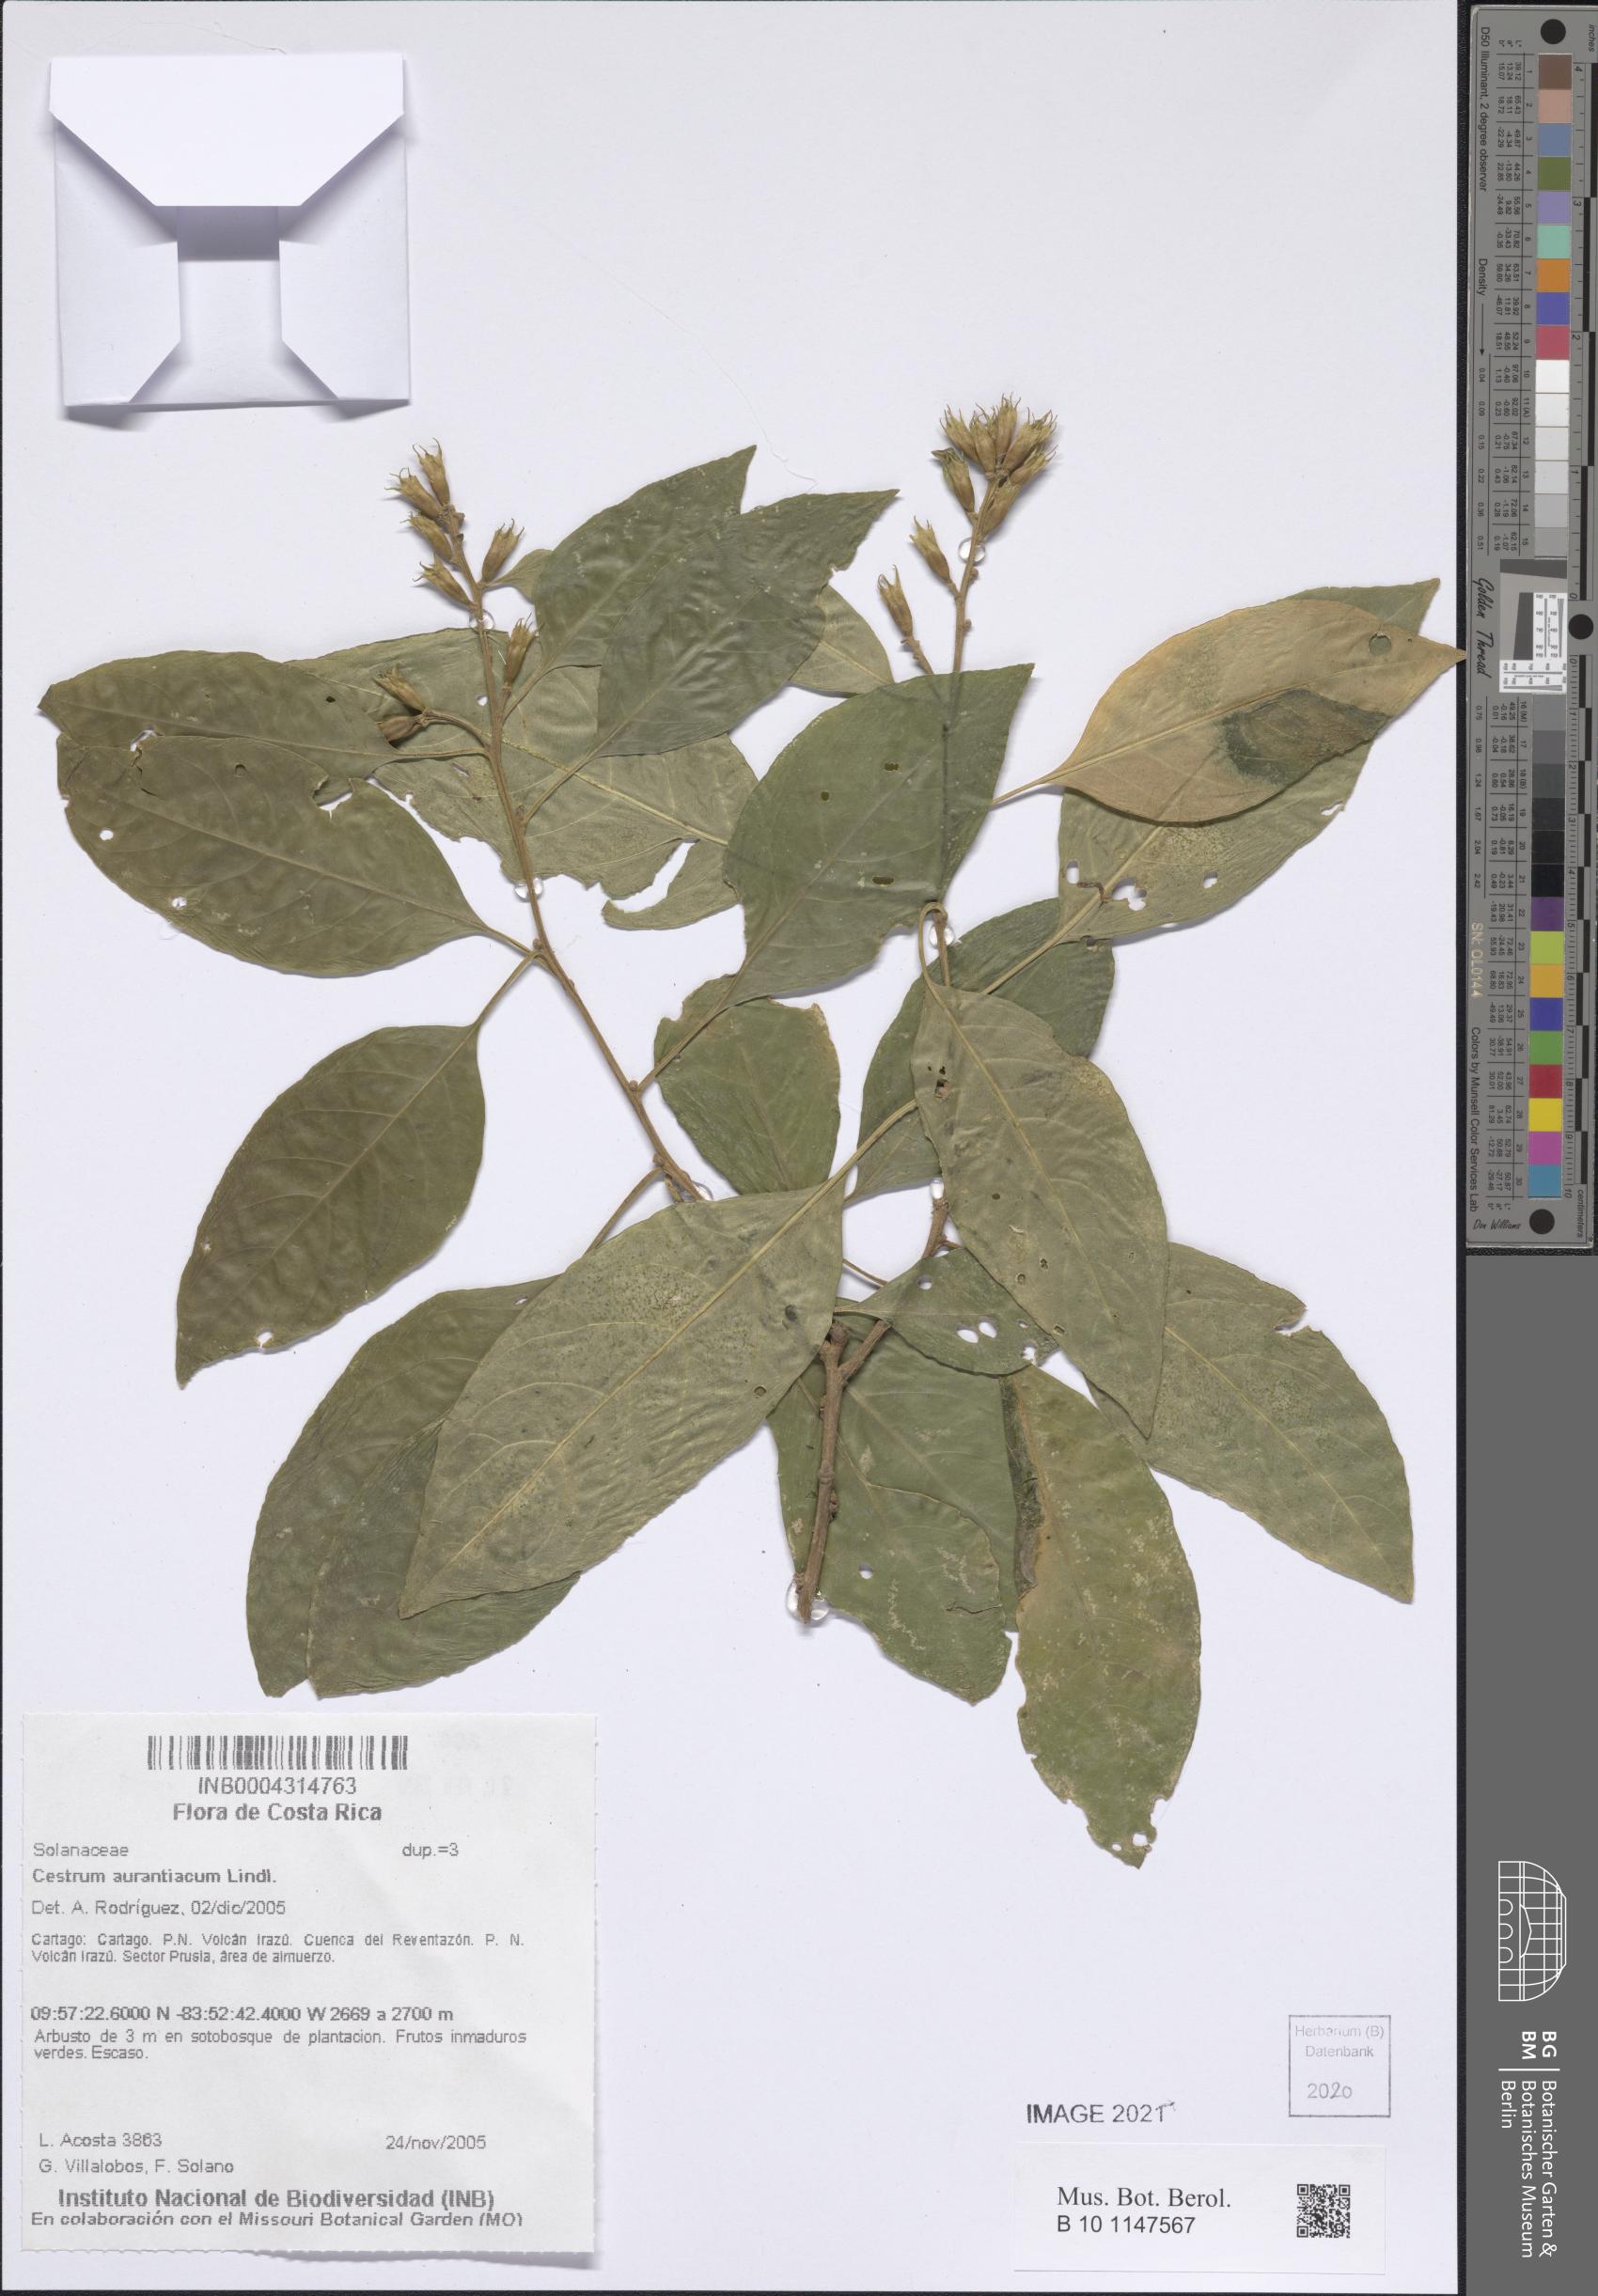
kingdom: Plantae
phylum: Tracheophyta
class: Magnoliopsida
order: Solanales
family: Solanaceae
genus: Cestrum
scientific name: Cestrum aurantiacum
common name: Orange cestrum
